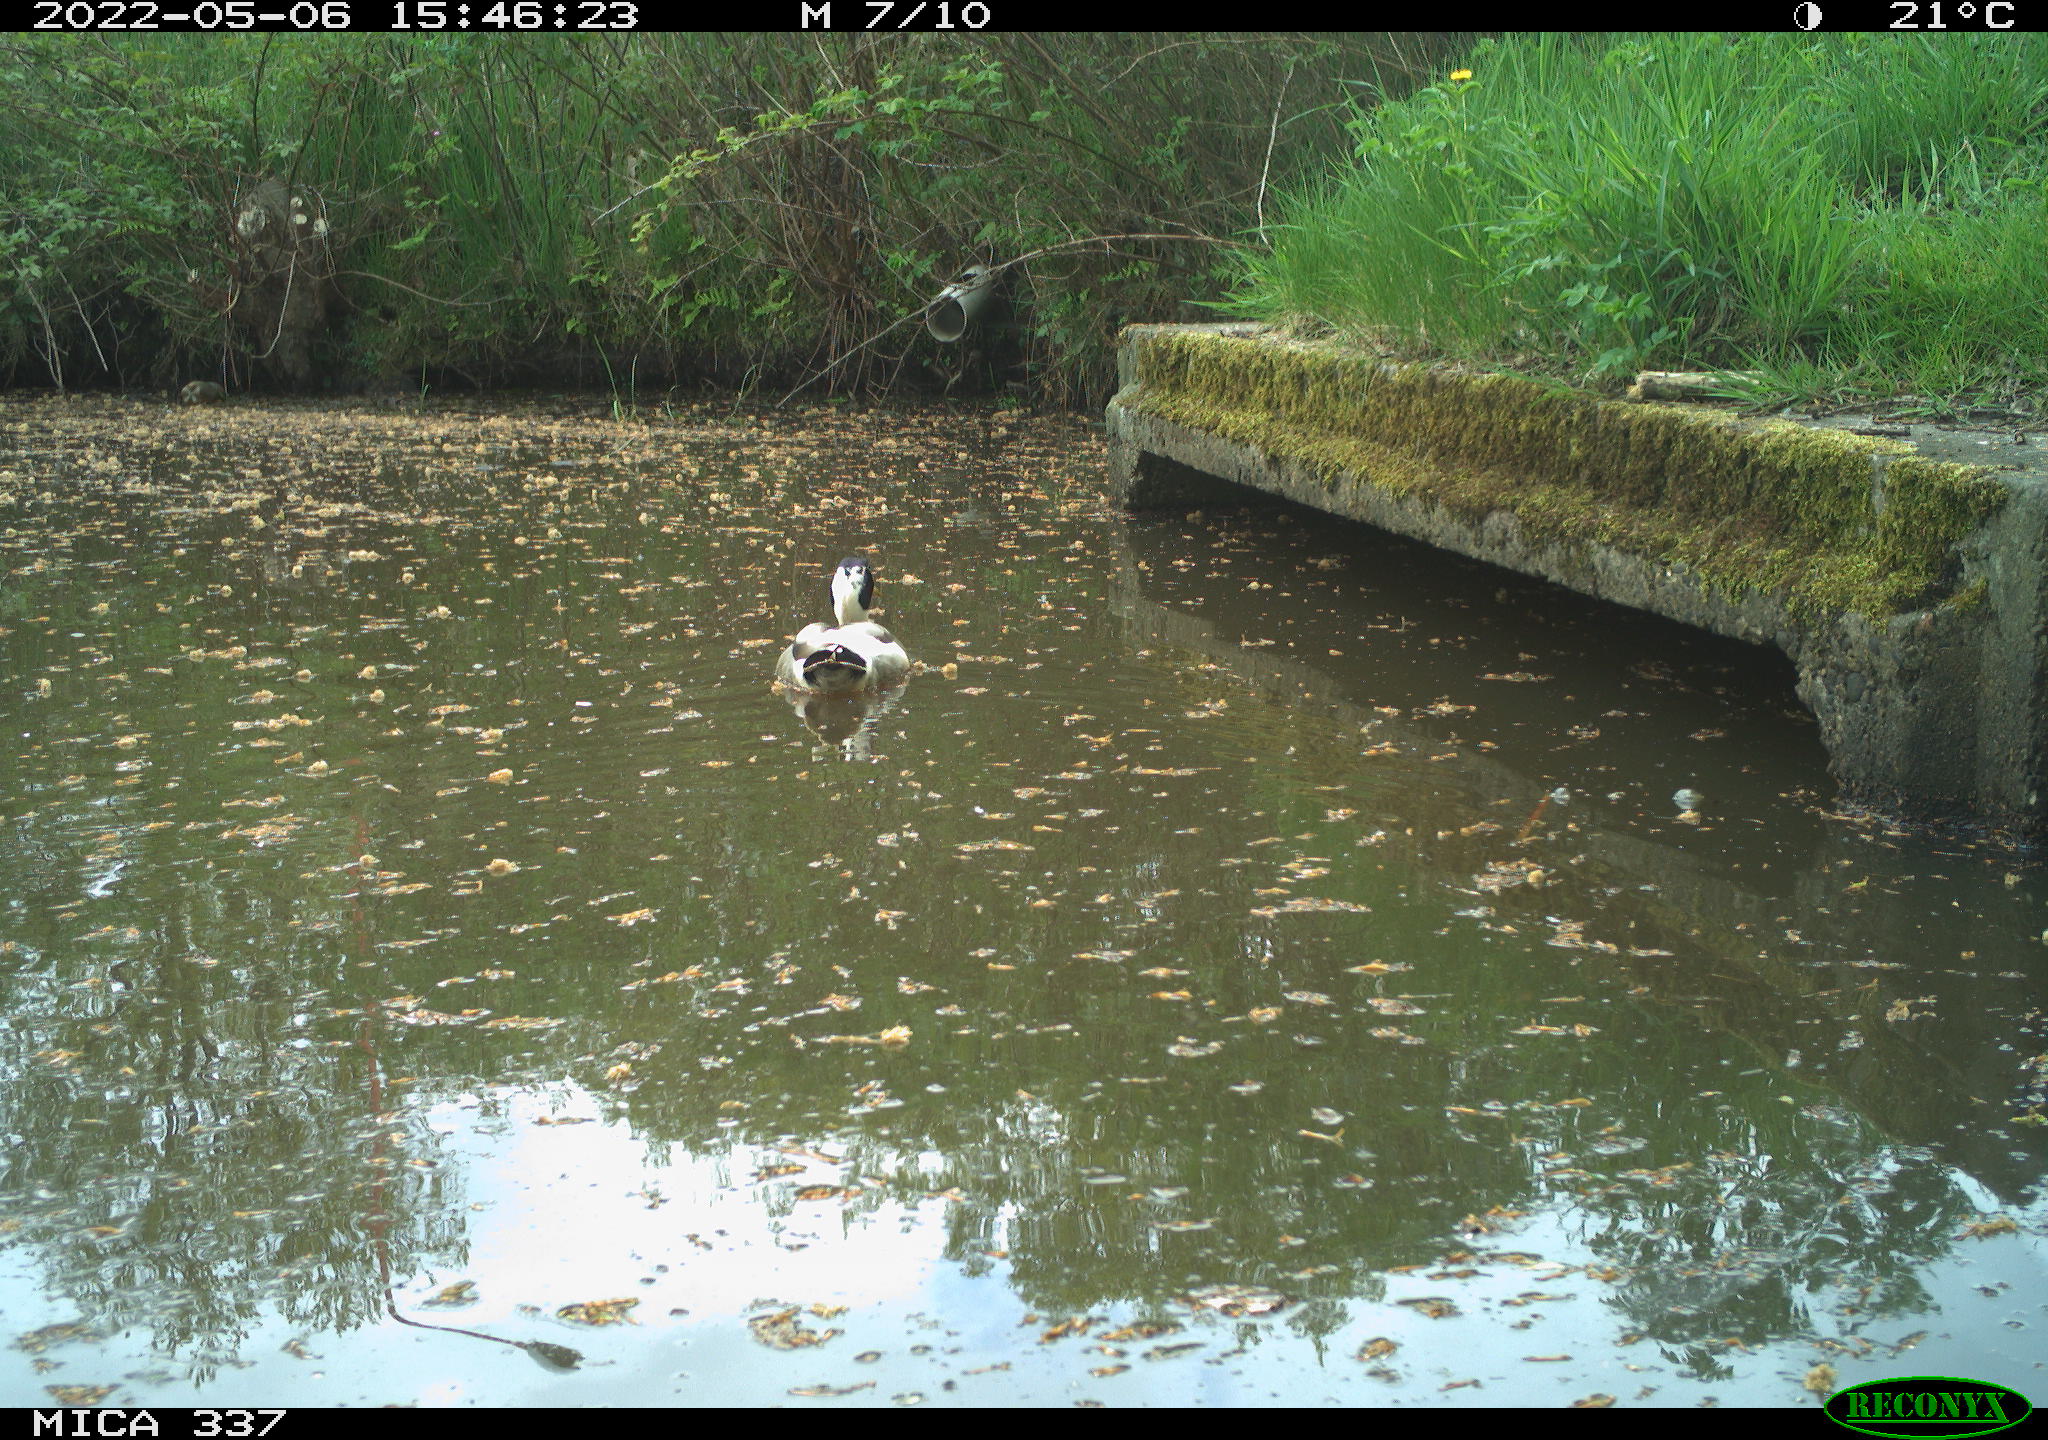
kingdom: Animalia
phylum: Chordata
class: Aves
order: Anseriformes
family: Anatidae
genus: Anas
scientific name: Anas platyrhynchos
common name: Mallard
